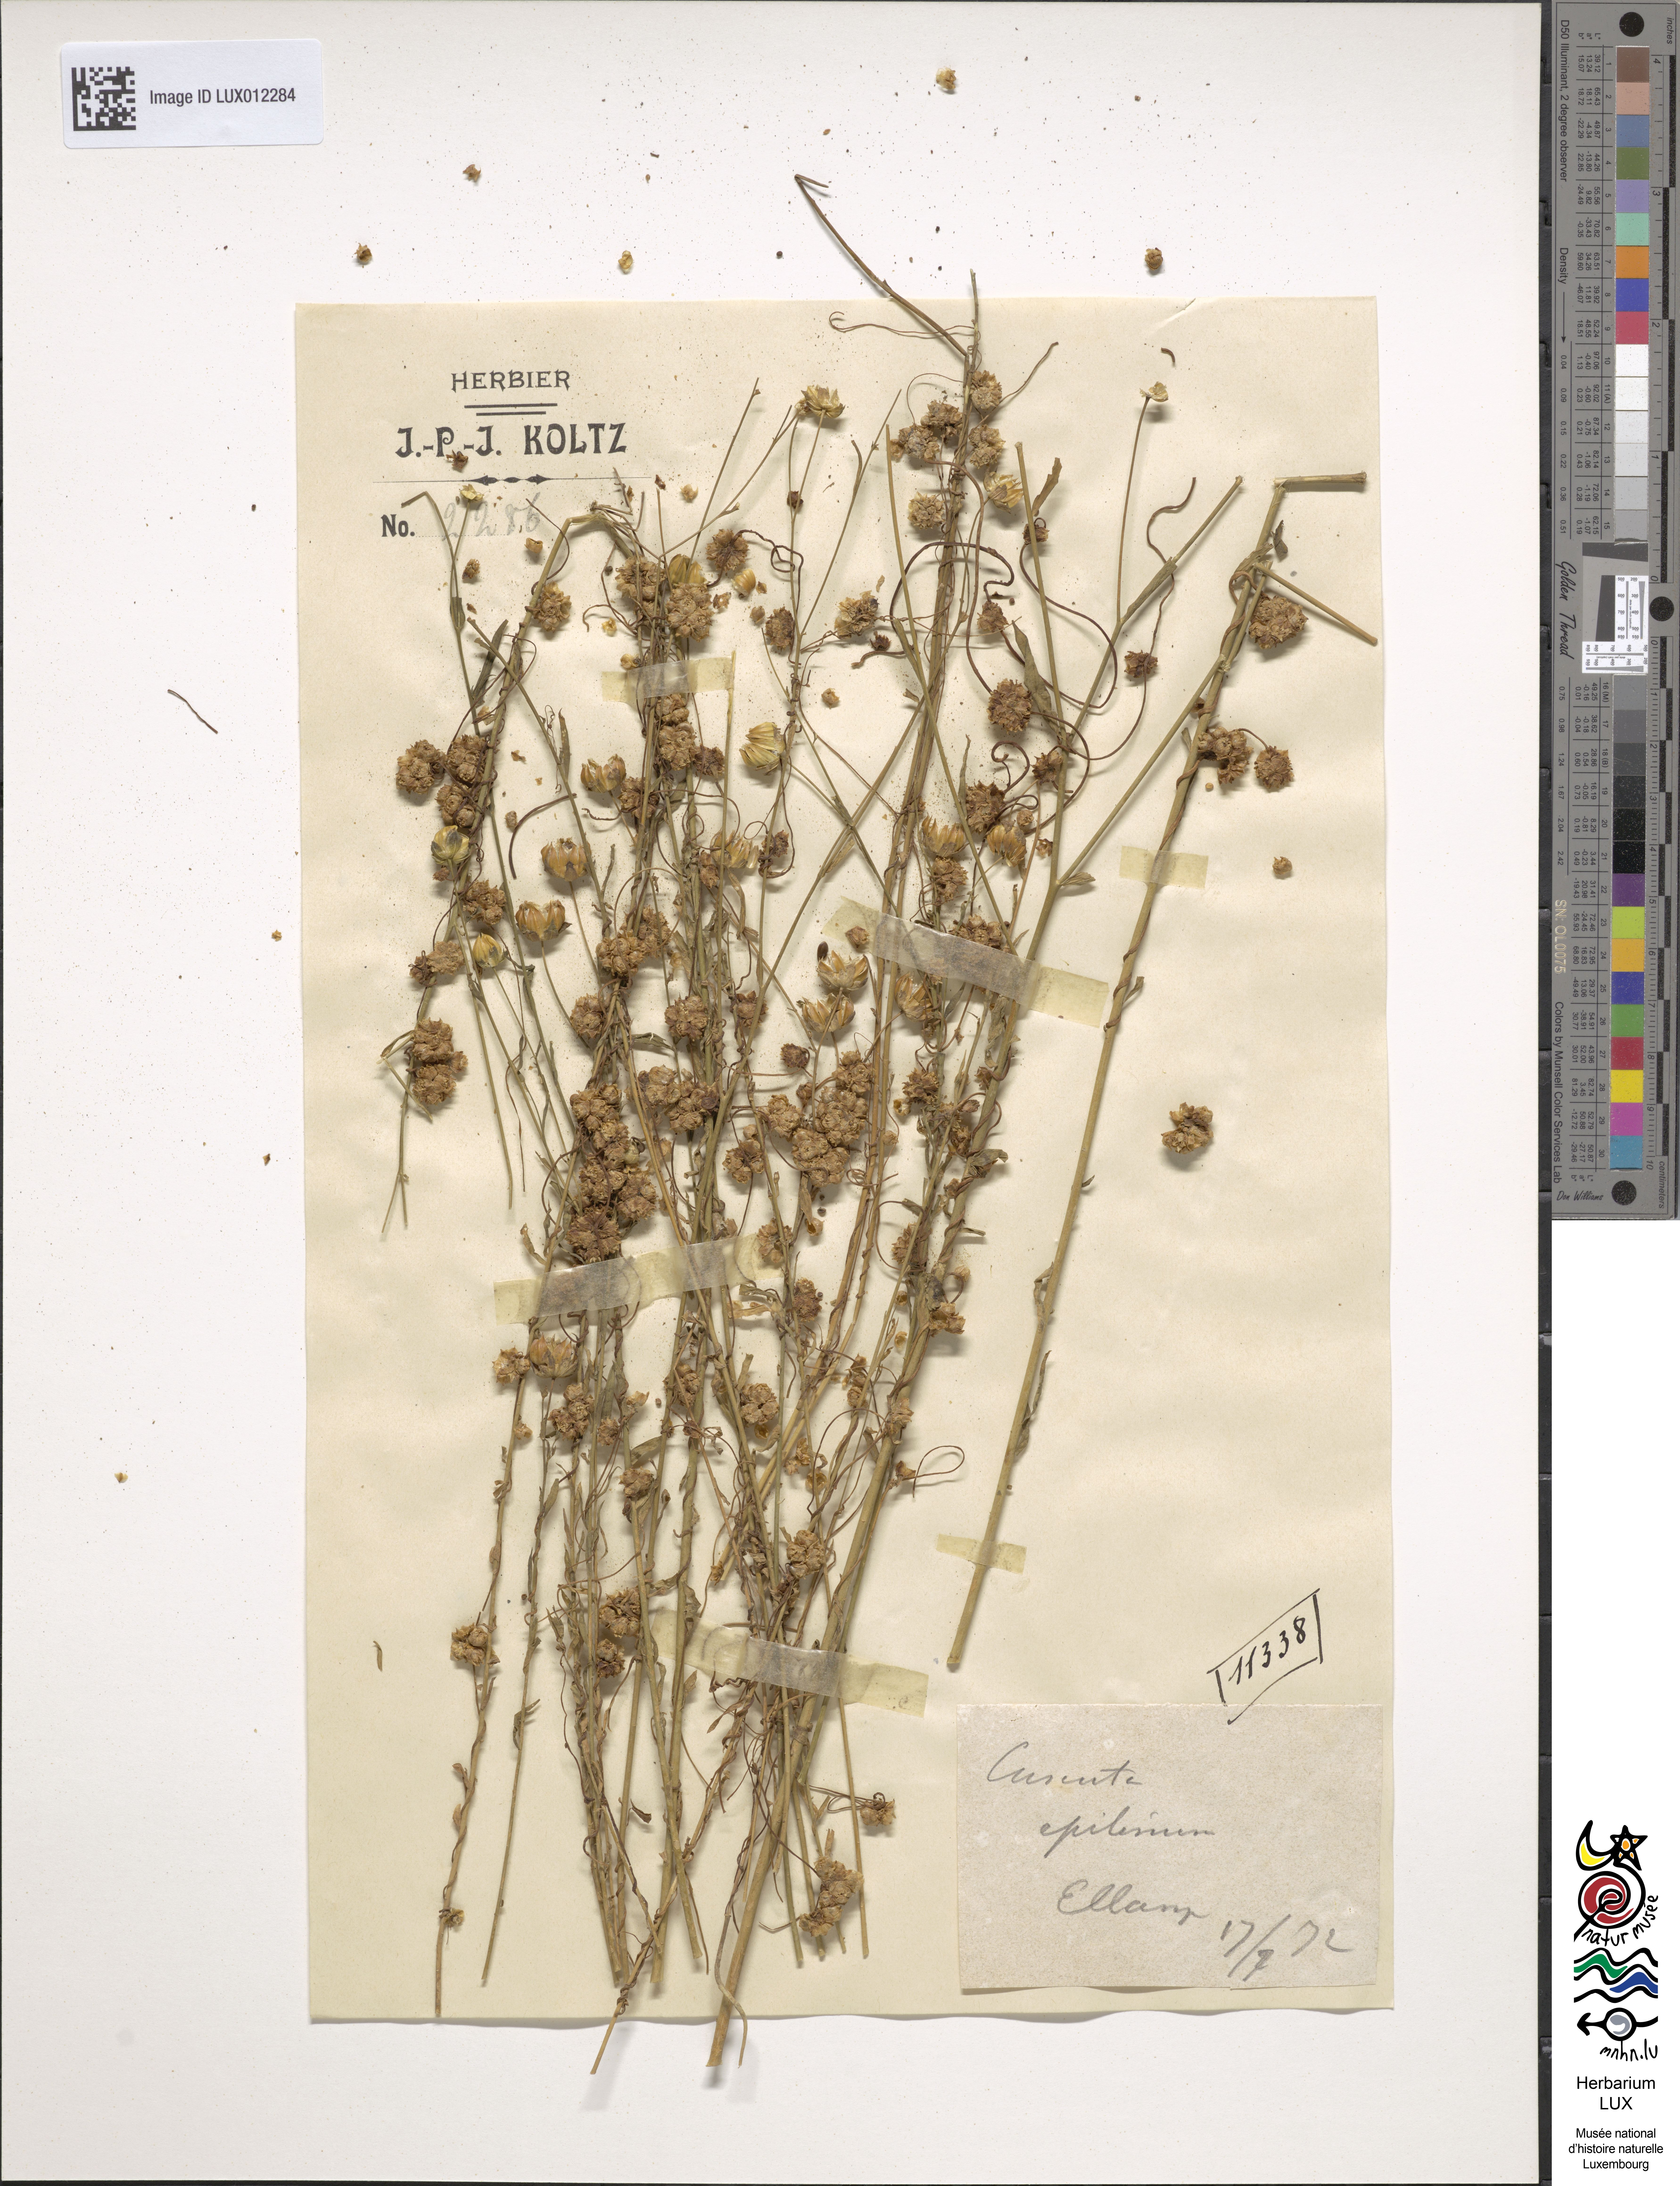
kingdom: Plantae
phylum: Tracheophyta
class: Magnoliopsida
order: Solanales
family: Convolvulaceae
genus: Cuscuta
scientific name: Cuscuta epilinum
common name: Flax dodder
